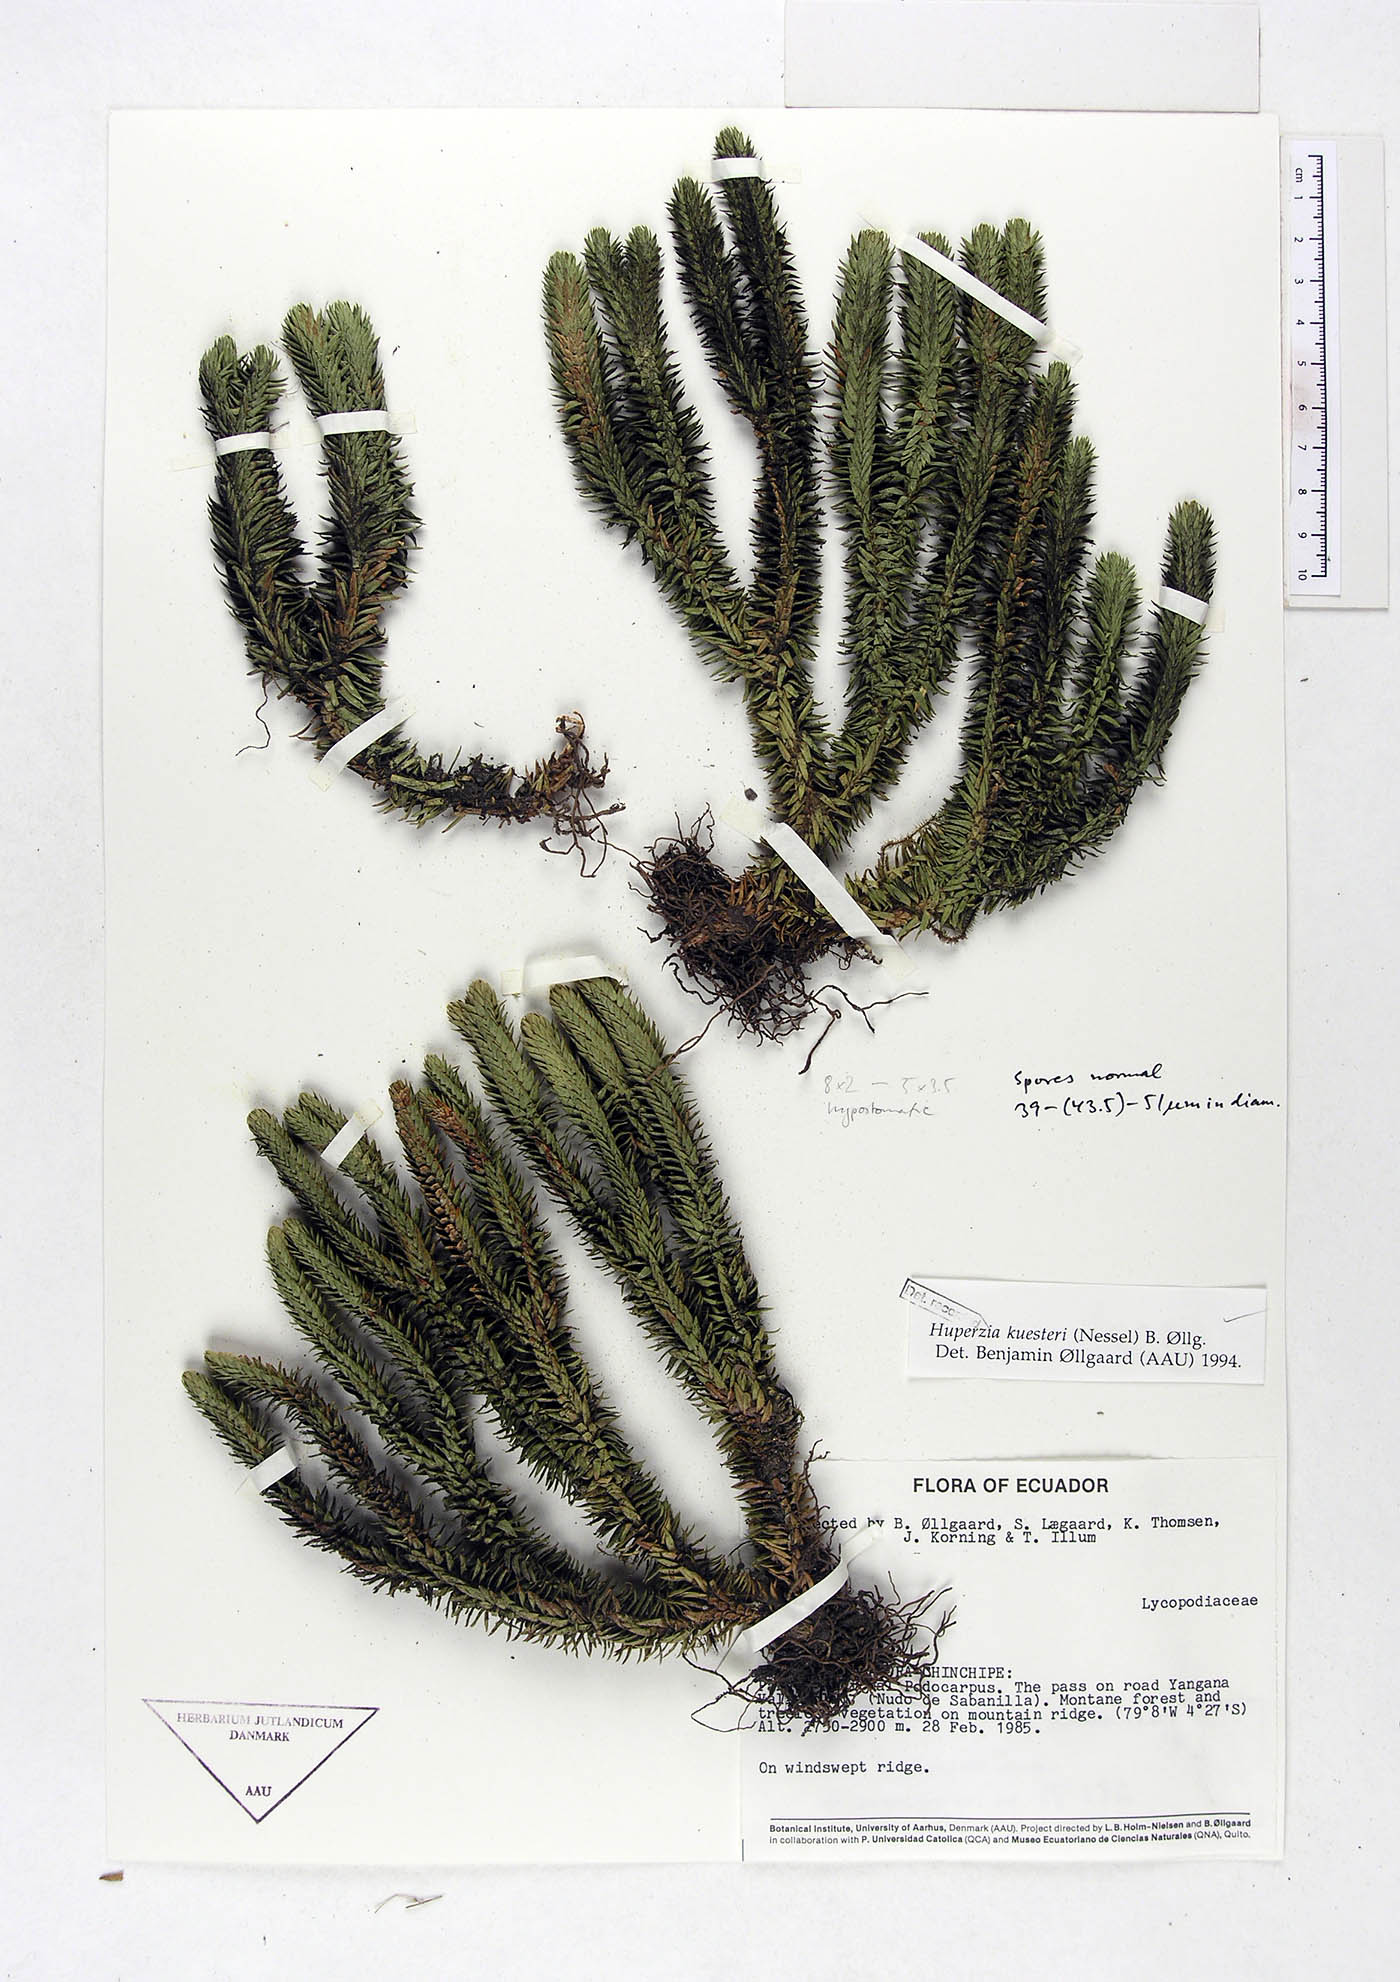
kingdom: Plantae
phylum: Tracheophyta
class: Lycopodiopsida
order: Lycopodiales
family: Lycopodiaceae
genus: Phlegmariurus
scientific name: Phlegmariurus kuesteri
